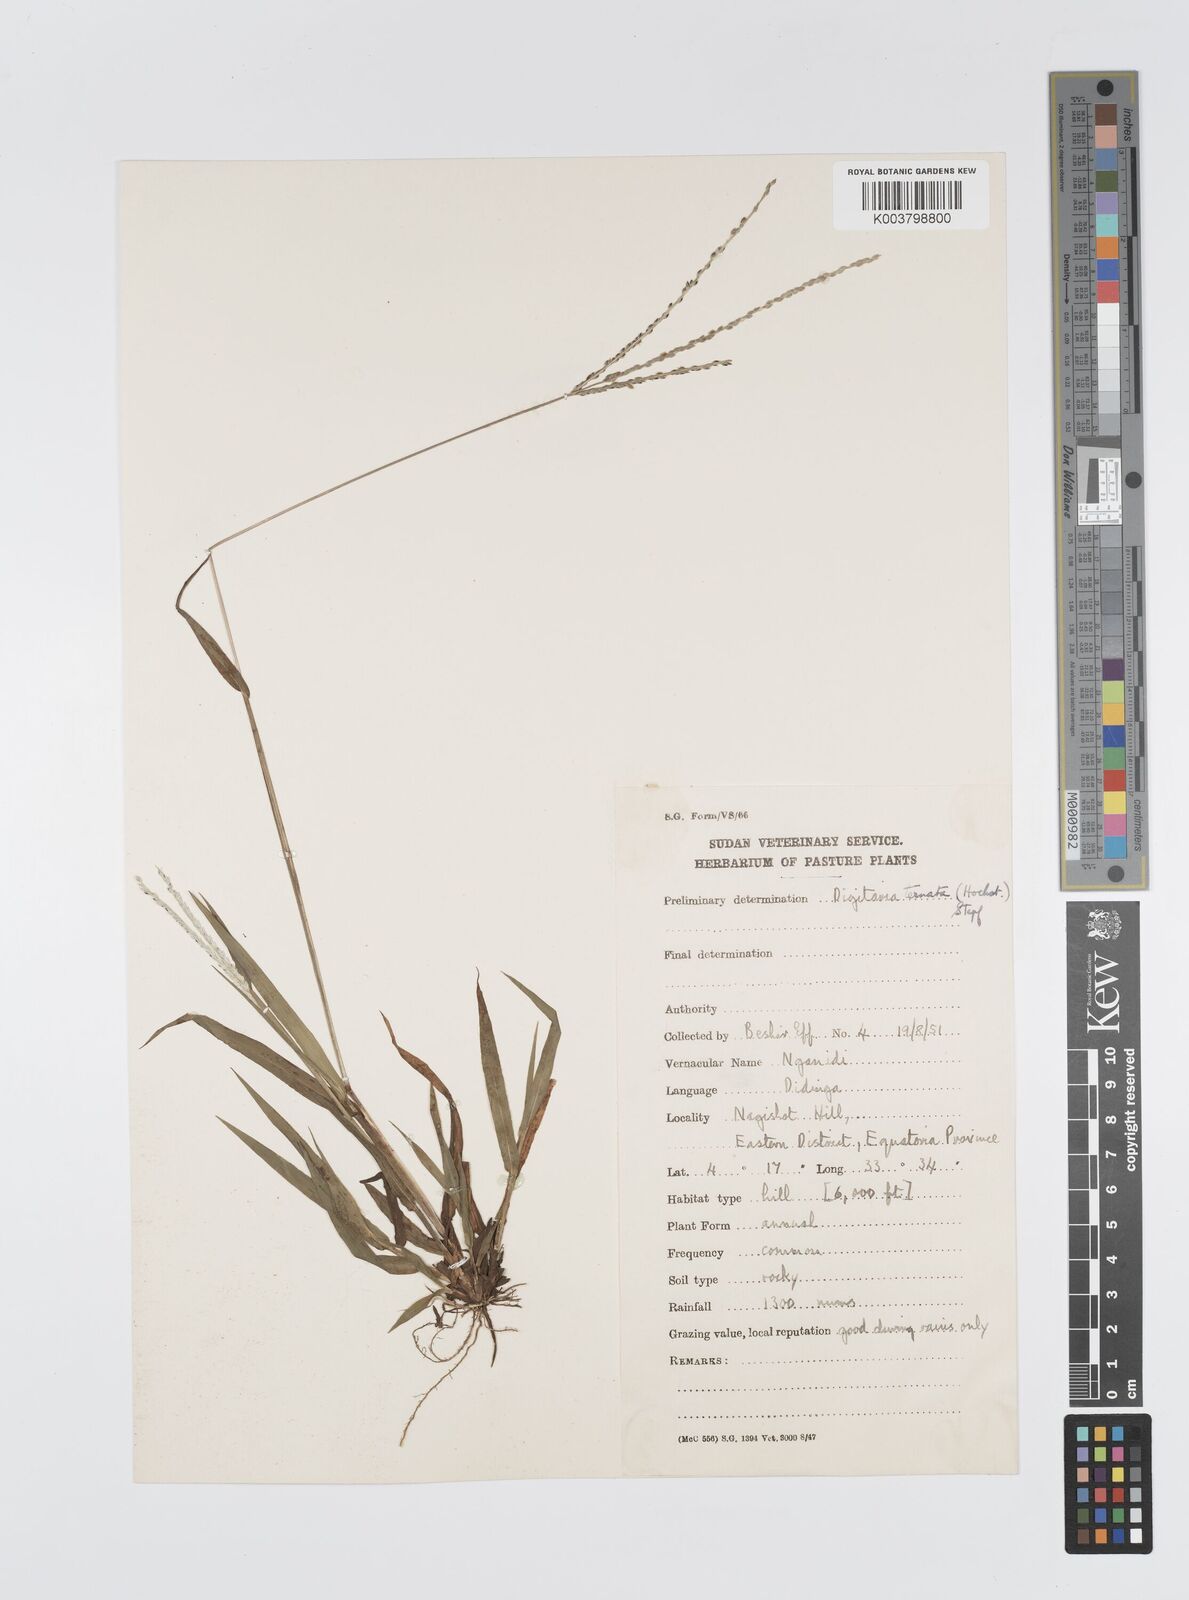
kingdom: Plantae
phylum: Tracheophyta
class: Liliopsida
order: Poales
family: Poaceae
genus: Digitaria
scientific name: Digitaria ternata
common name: Blackseed crabgrass
